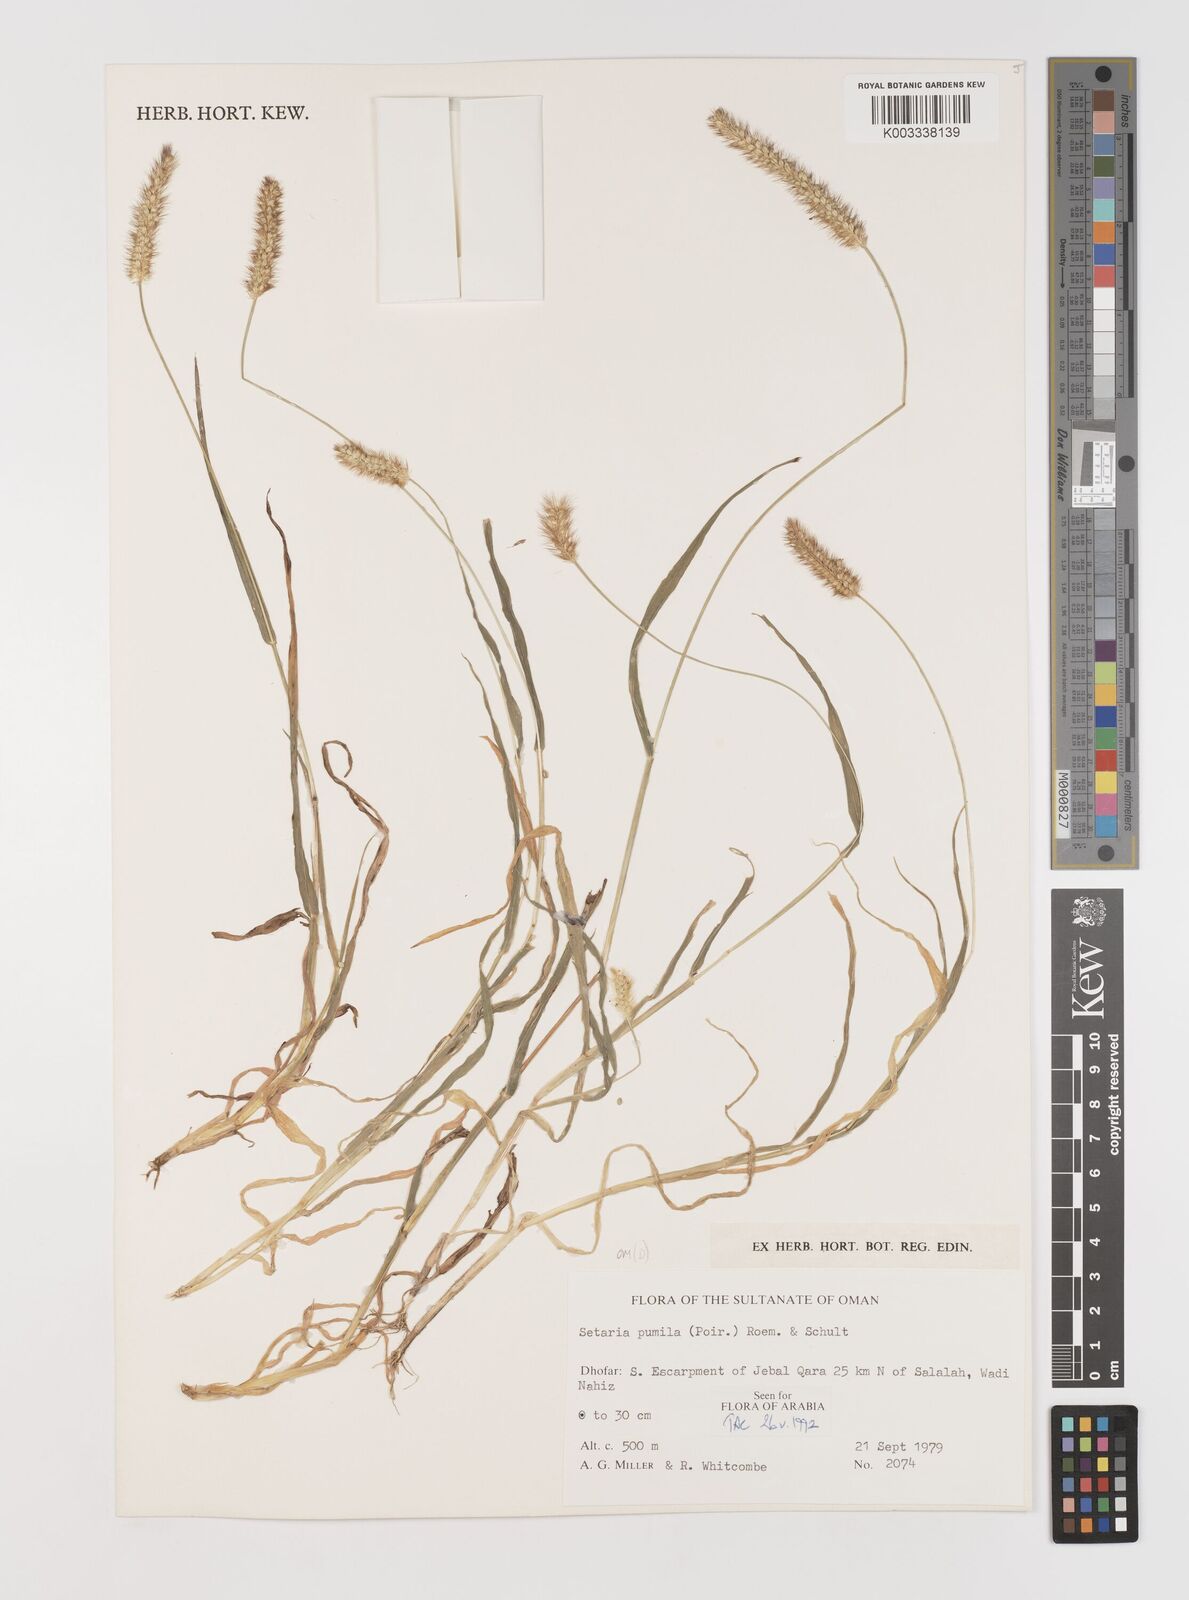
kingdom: Plantae
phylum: Tracheophyta
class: Liliopsida
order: Poales
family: Poaceae
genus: Setaria
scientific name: Setaria pumila
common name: Yellow bristle-grass
